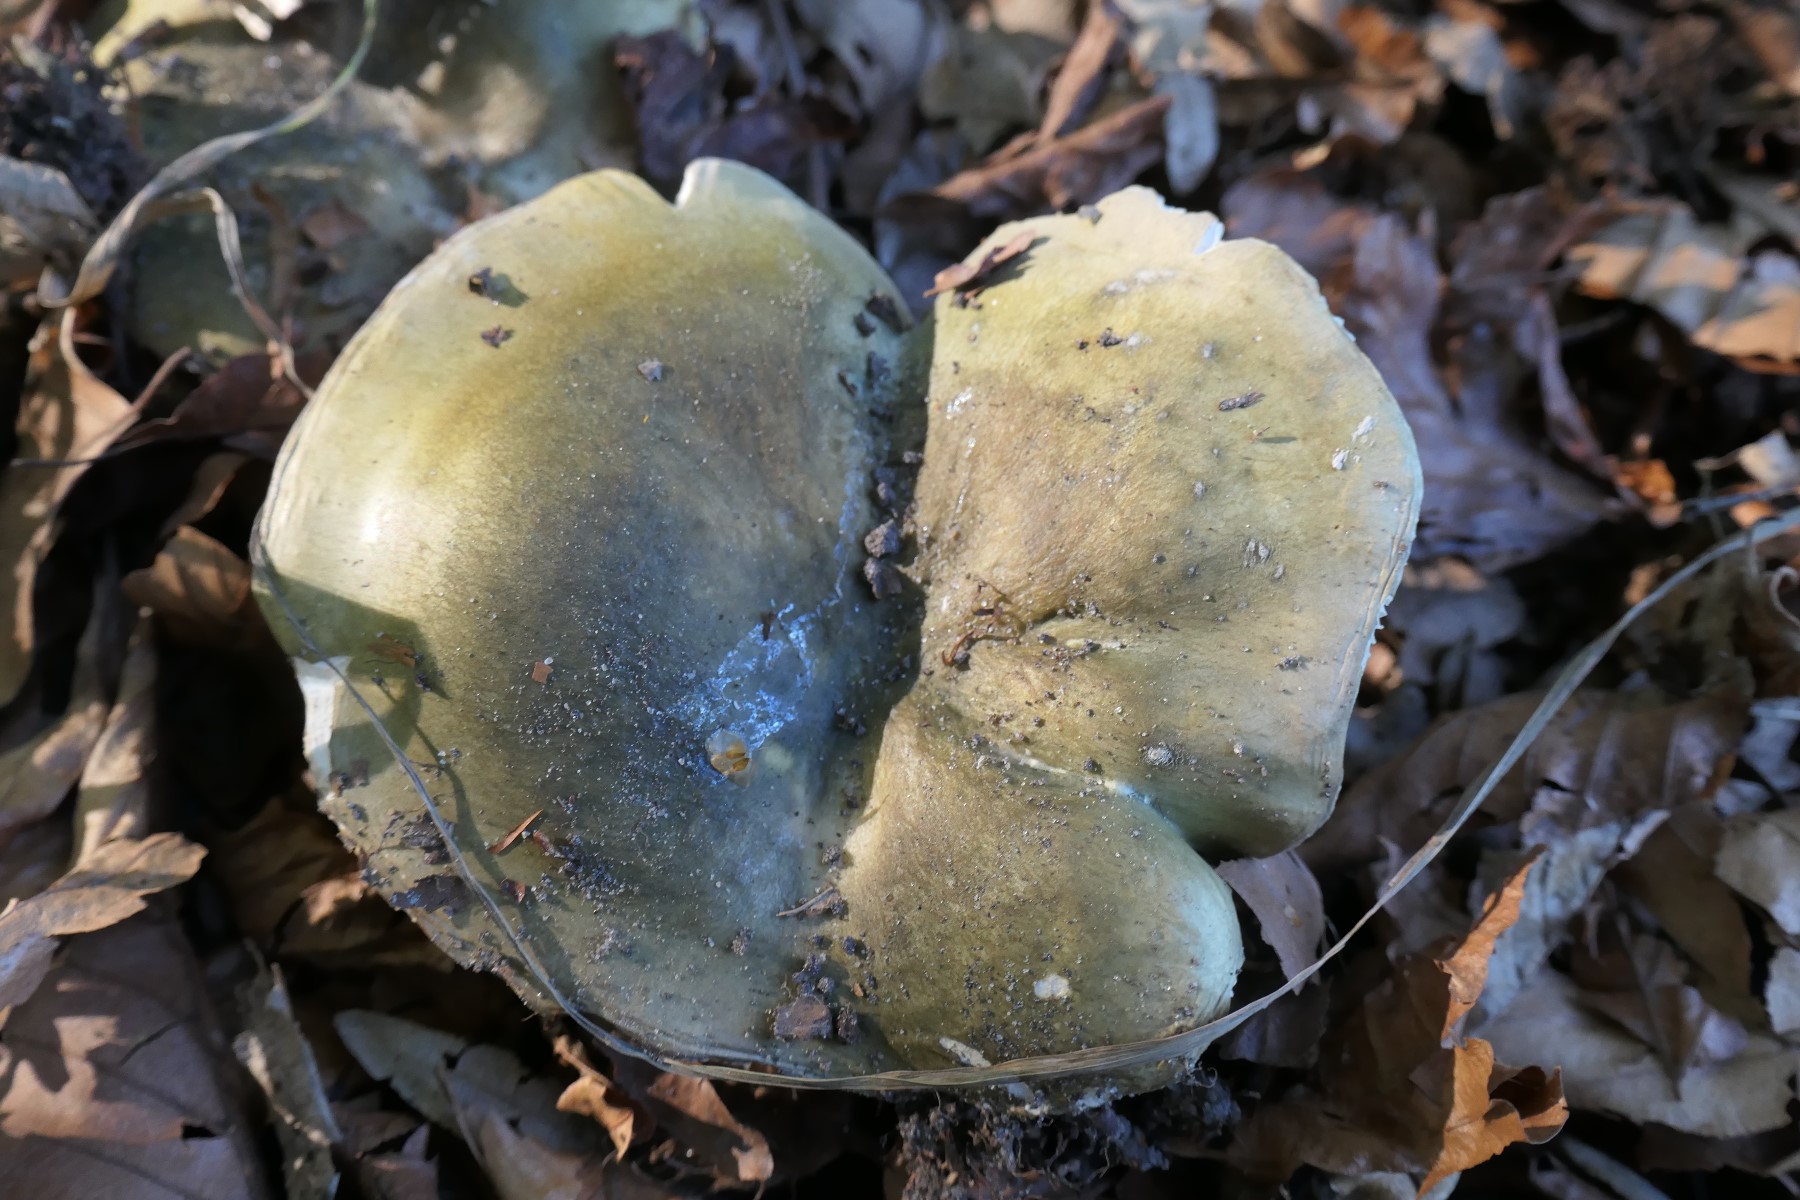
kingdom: Fungi
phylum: Basidiomycota
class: Agaricomycetes
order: Russulales
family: Russulaceae
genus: Russula
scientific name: Russula heterophylla
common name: gaffelbladet skørhat
